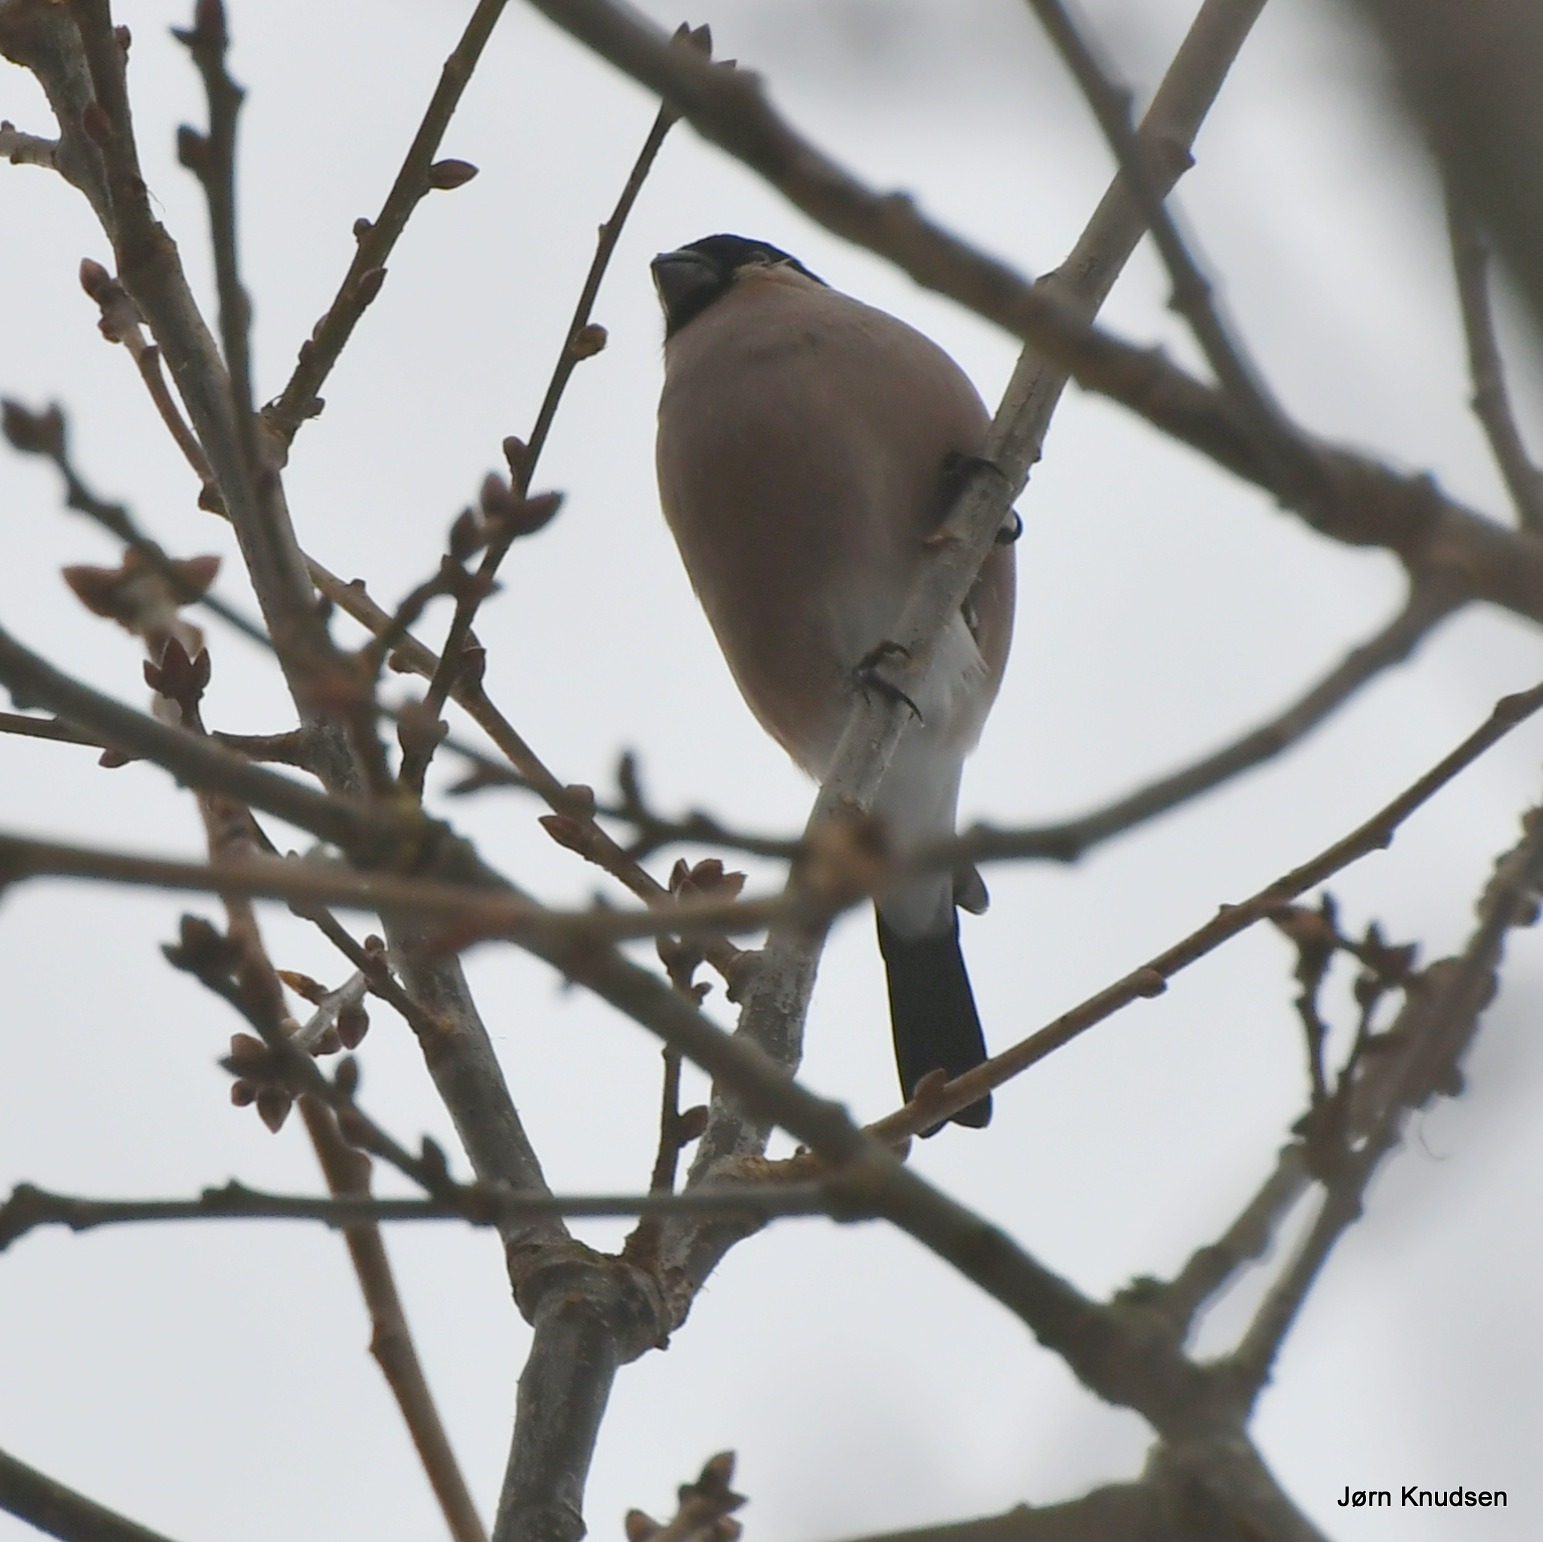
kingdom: Animalia
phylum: Chordata
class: Aves
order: Passeriformes
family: Fringillidae
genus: Pyrrhula
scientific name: Pyrrhula pyrrhula
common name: Dompap
